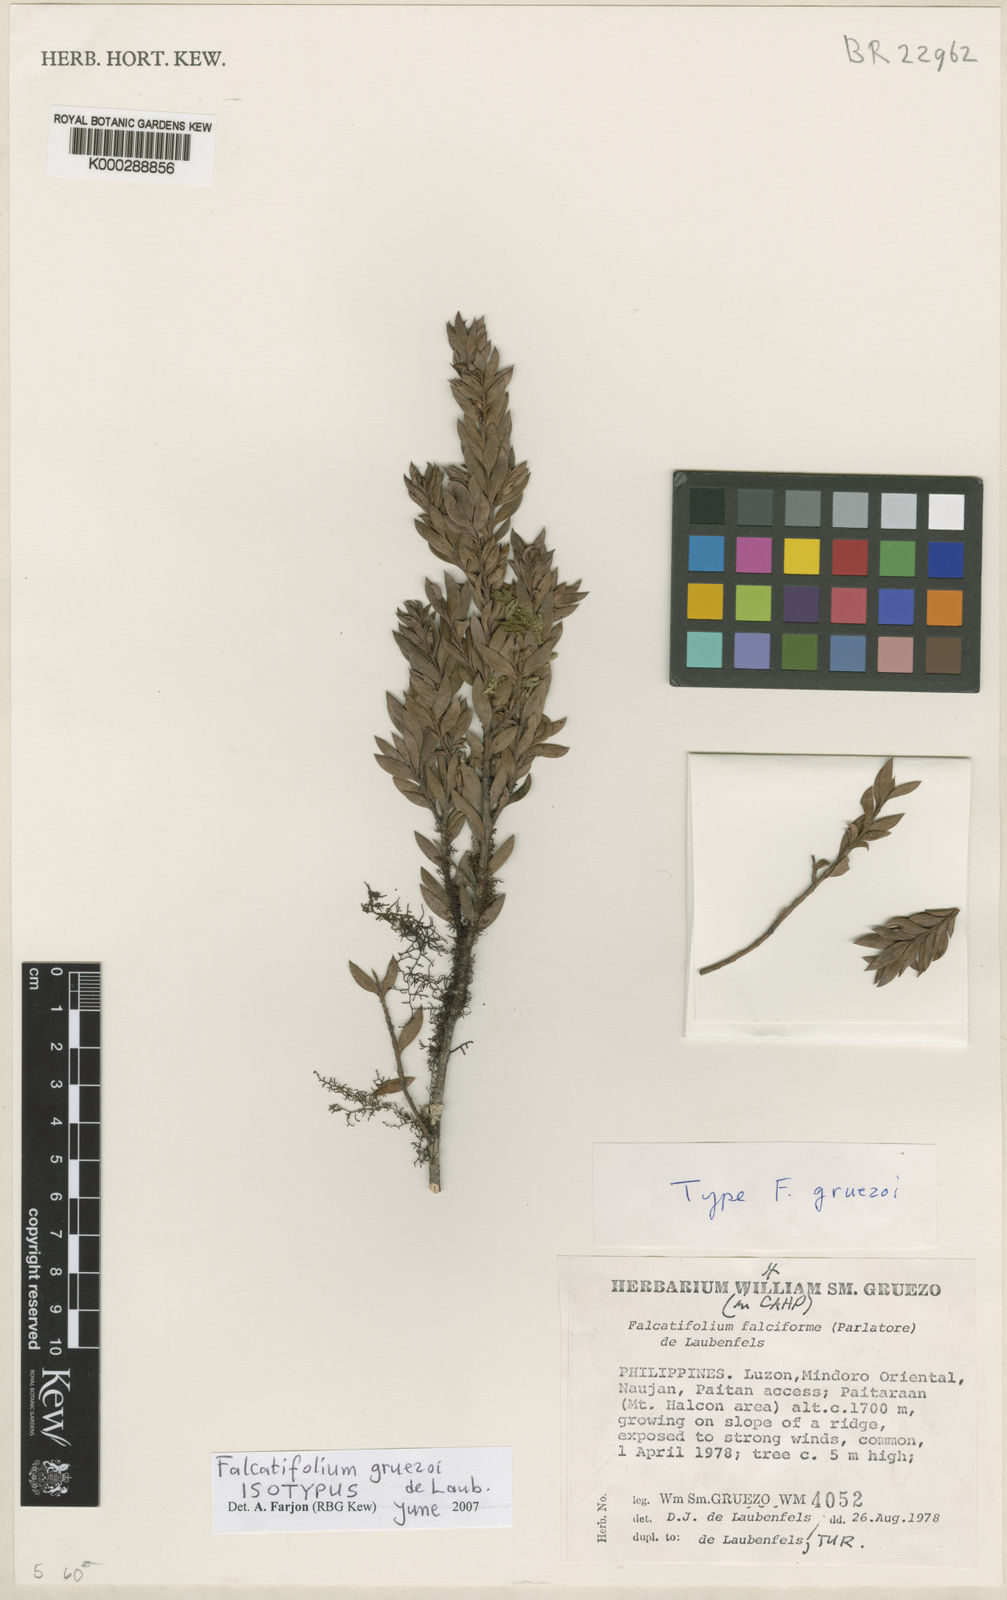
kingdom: Plantae
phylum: Tracheophyta
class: Pinopsida
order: Pinales
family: Podocarpaceae
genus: Falcatifolium
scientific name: Falcatifolium gruezoi
